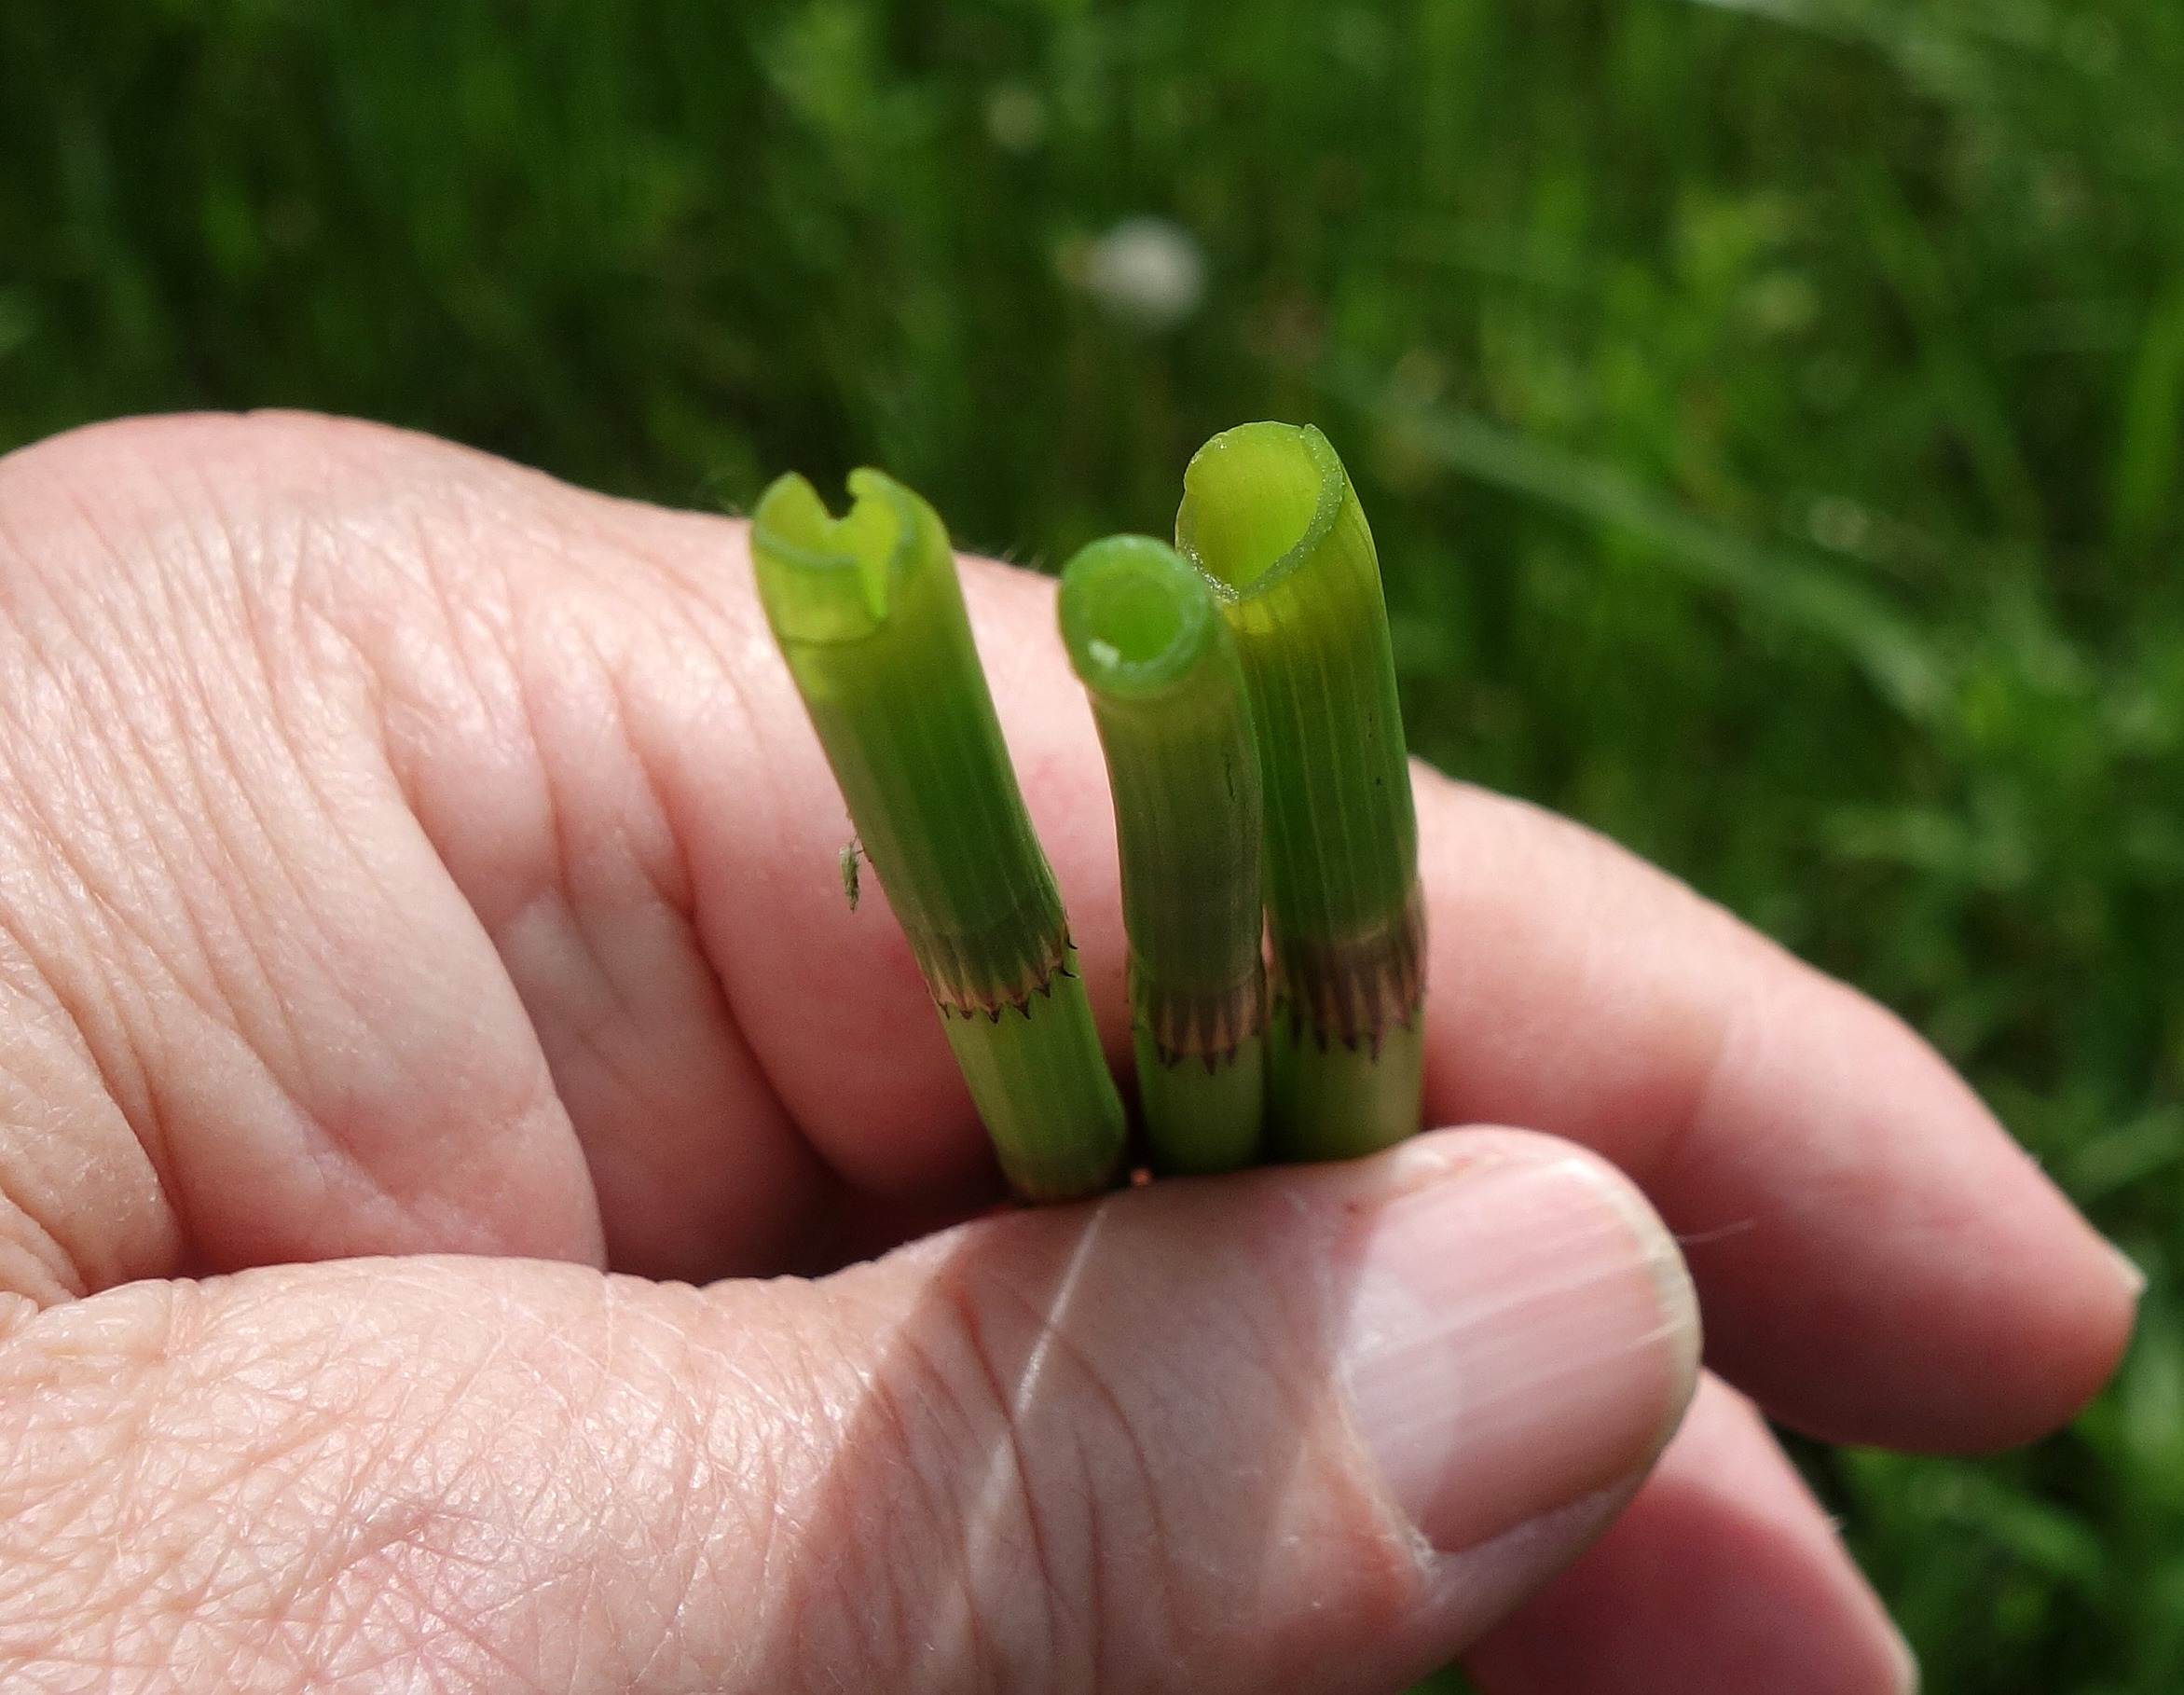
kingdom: Plantae
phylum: Tracheophyta
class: Polypodiopsida
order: Equisetales
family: Equisetaceae
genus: Equisetum
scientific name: Equisetum fluviatile
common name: Dynd-padderok
